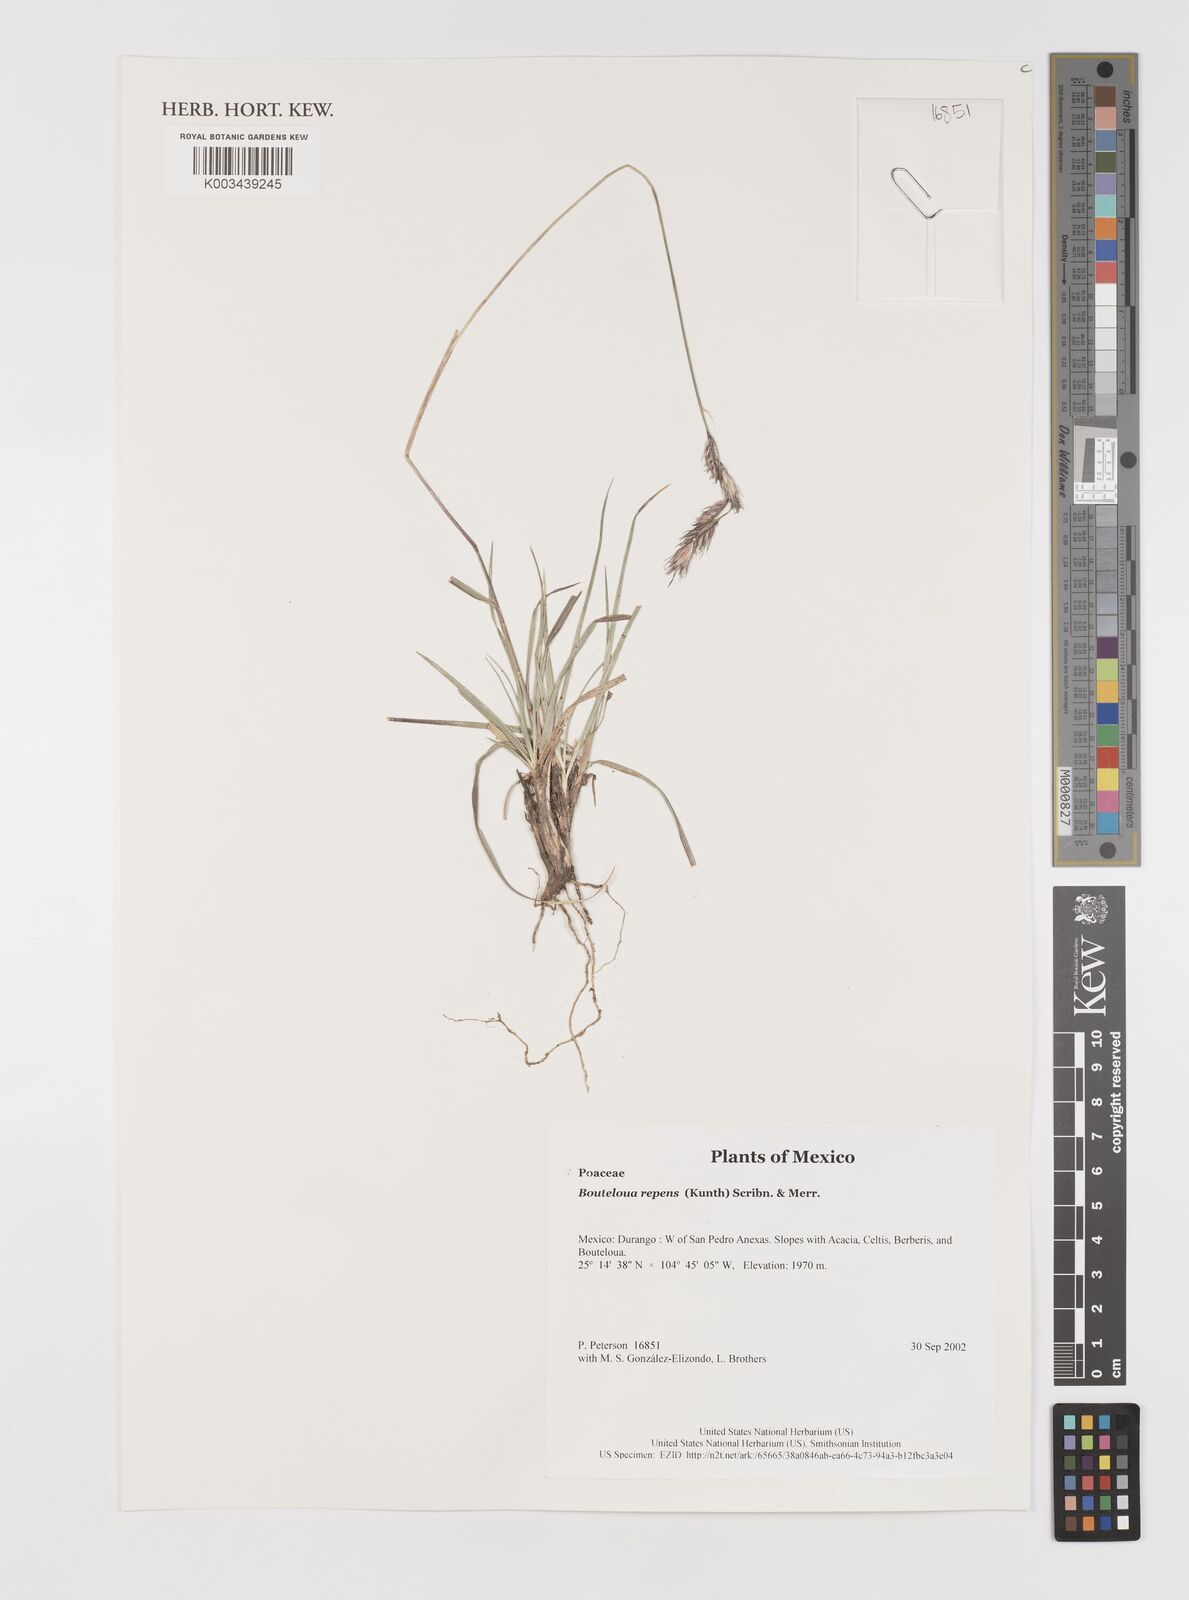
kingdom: Plantae
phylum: Tracheophyta
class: Liliopsida
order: Poales
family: Poaceae
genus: Bouteloua
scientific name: Bouteloua repens
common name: Slender grama
